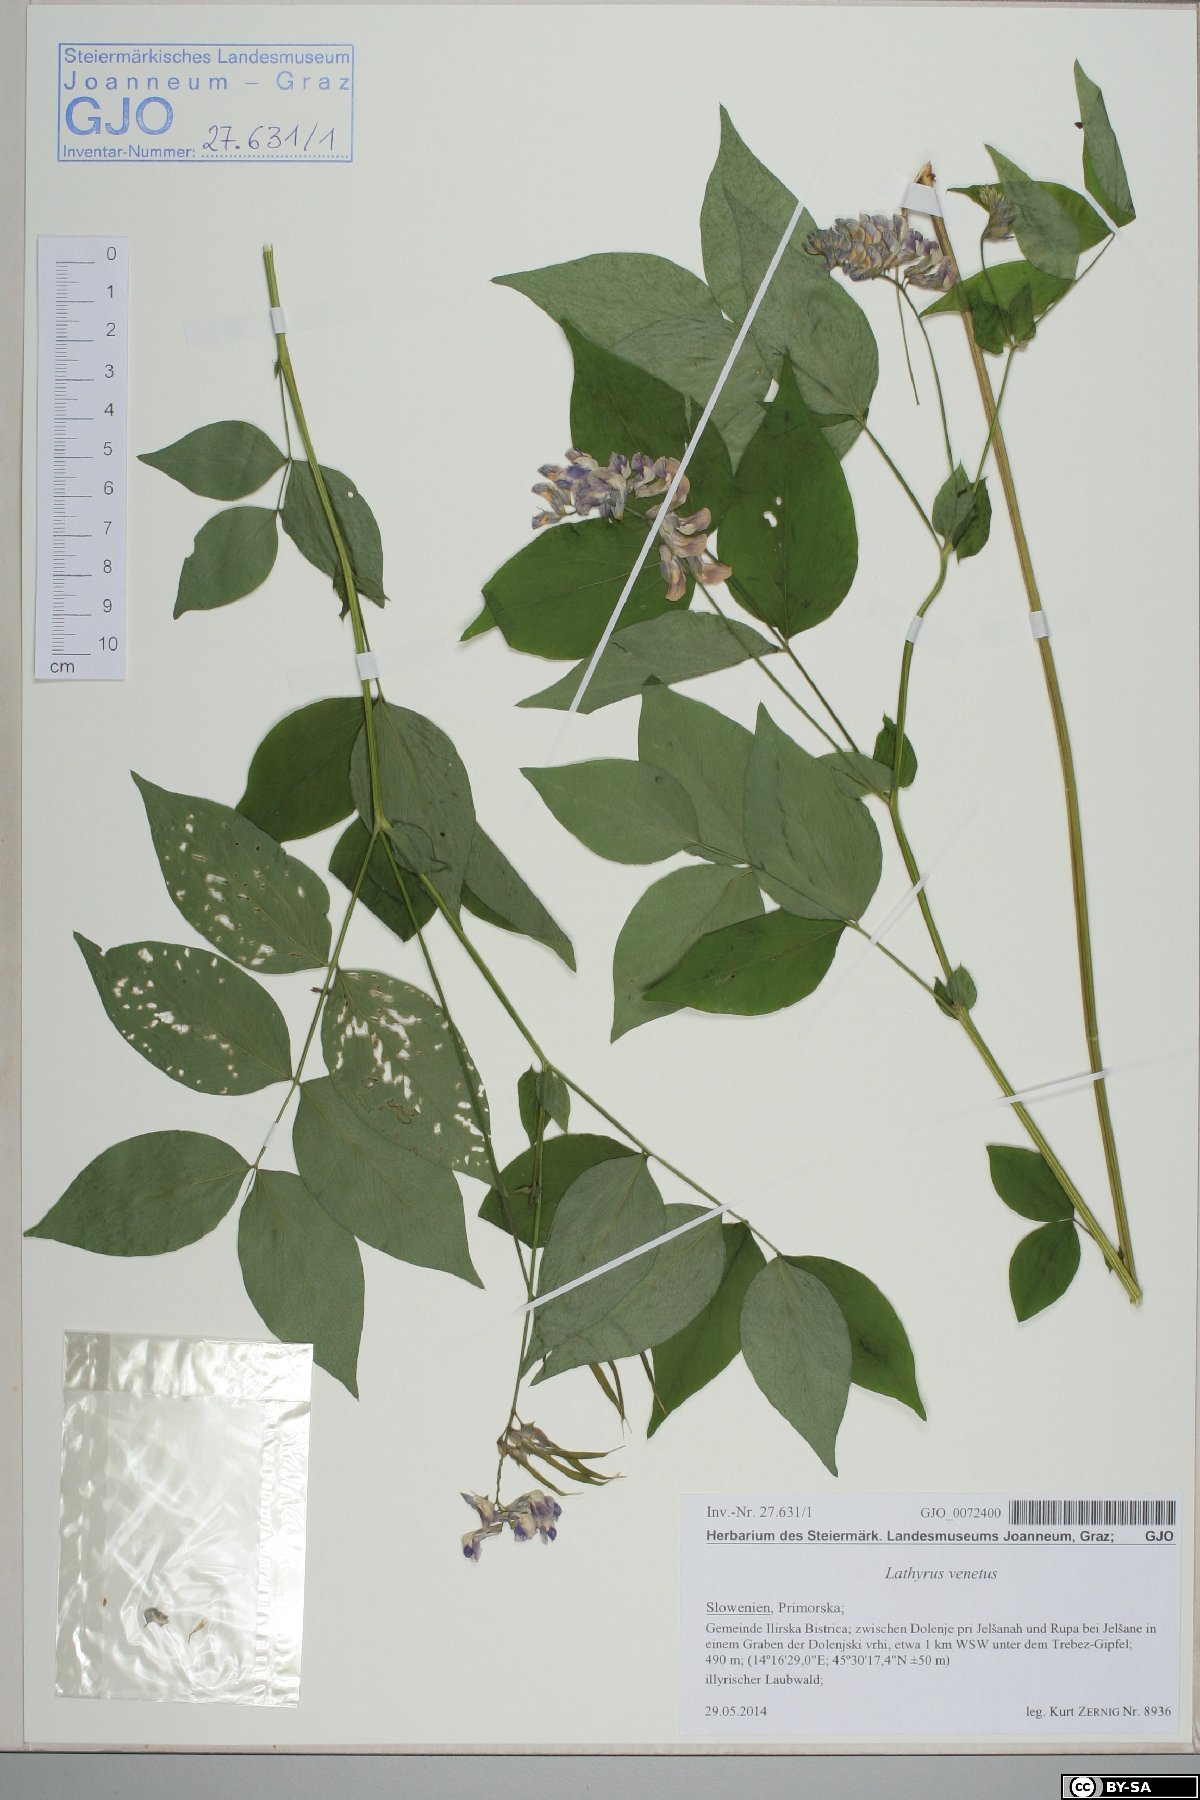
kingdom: Plantae
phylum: Tracheophyta
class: Magnoliopsida
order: Fabales
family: Fabaceae
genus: Lathyrus
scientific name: Lathyrus venetus
